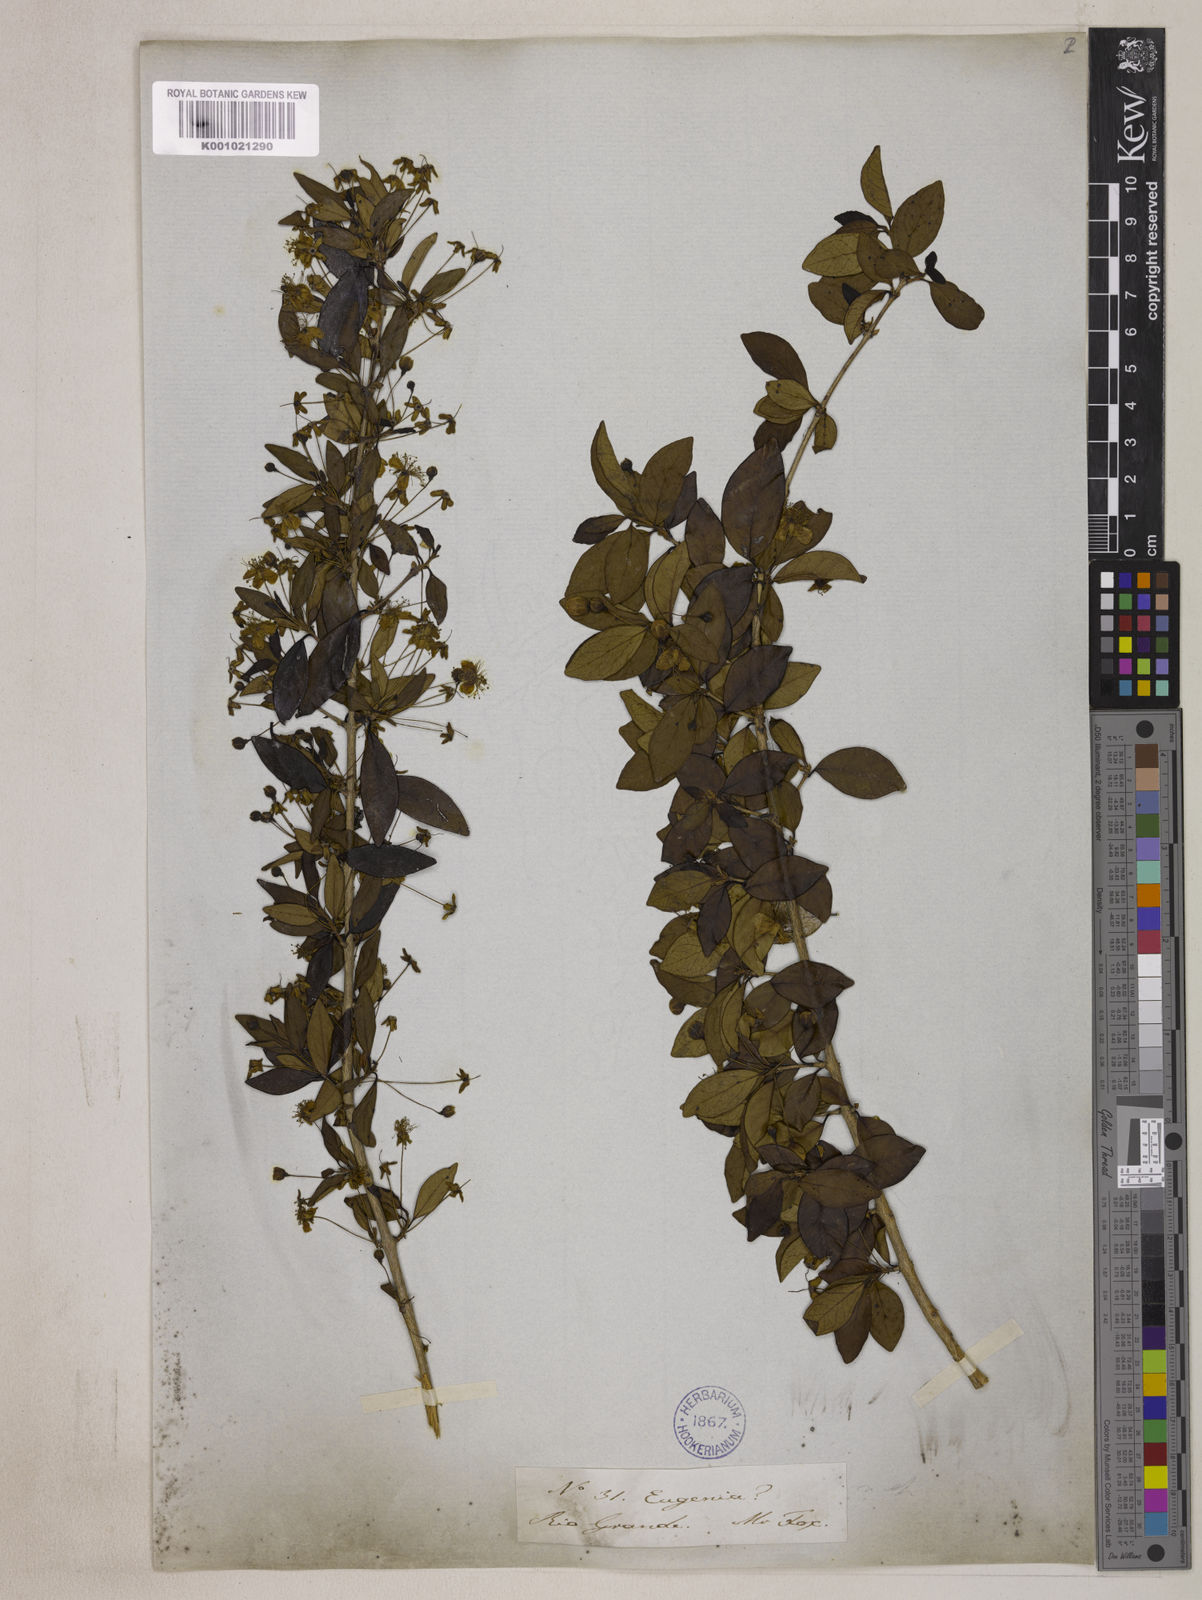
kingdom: Plantae
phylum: Tracheophyta
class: Magnoliopsida
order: Myrtales
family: Myrtaceae
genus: Eugenia
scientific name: Eugenia uniflora
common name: Surinam cherry
